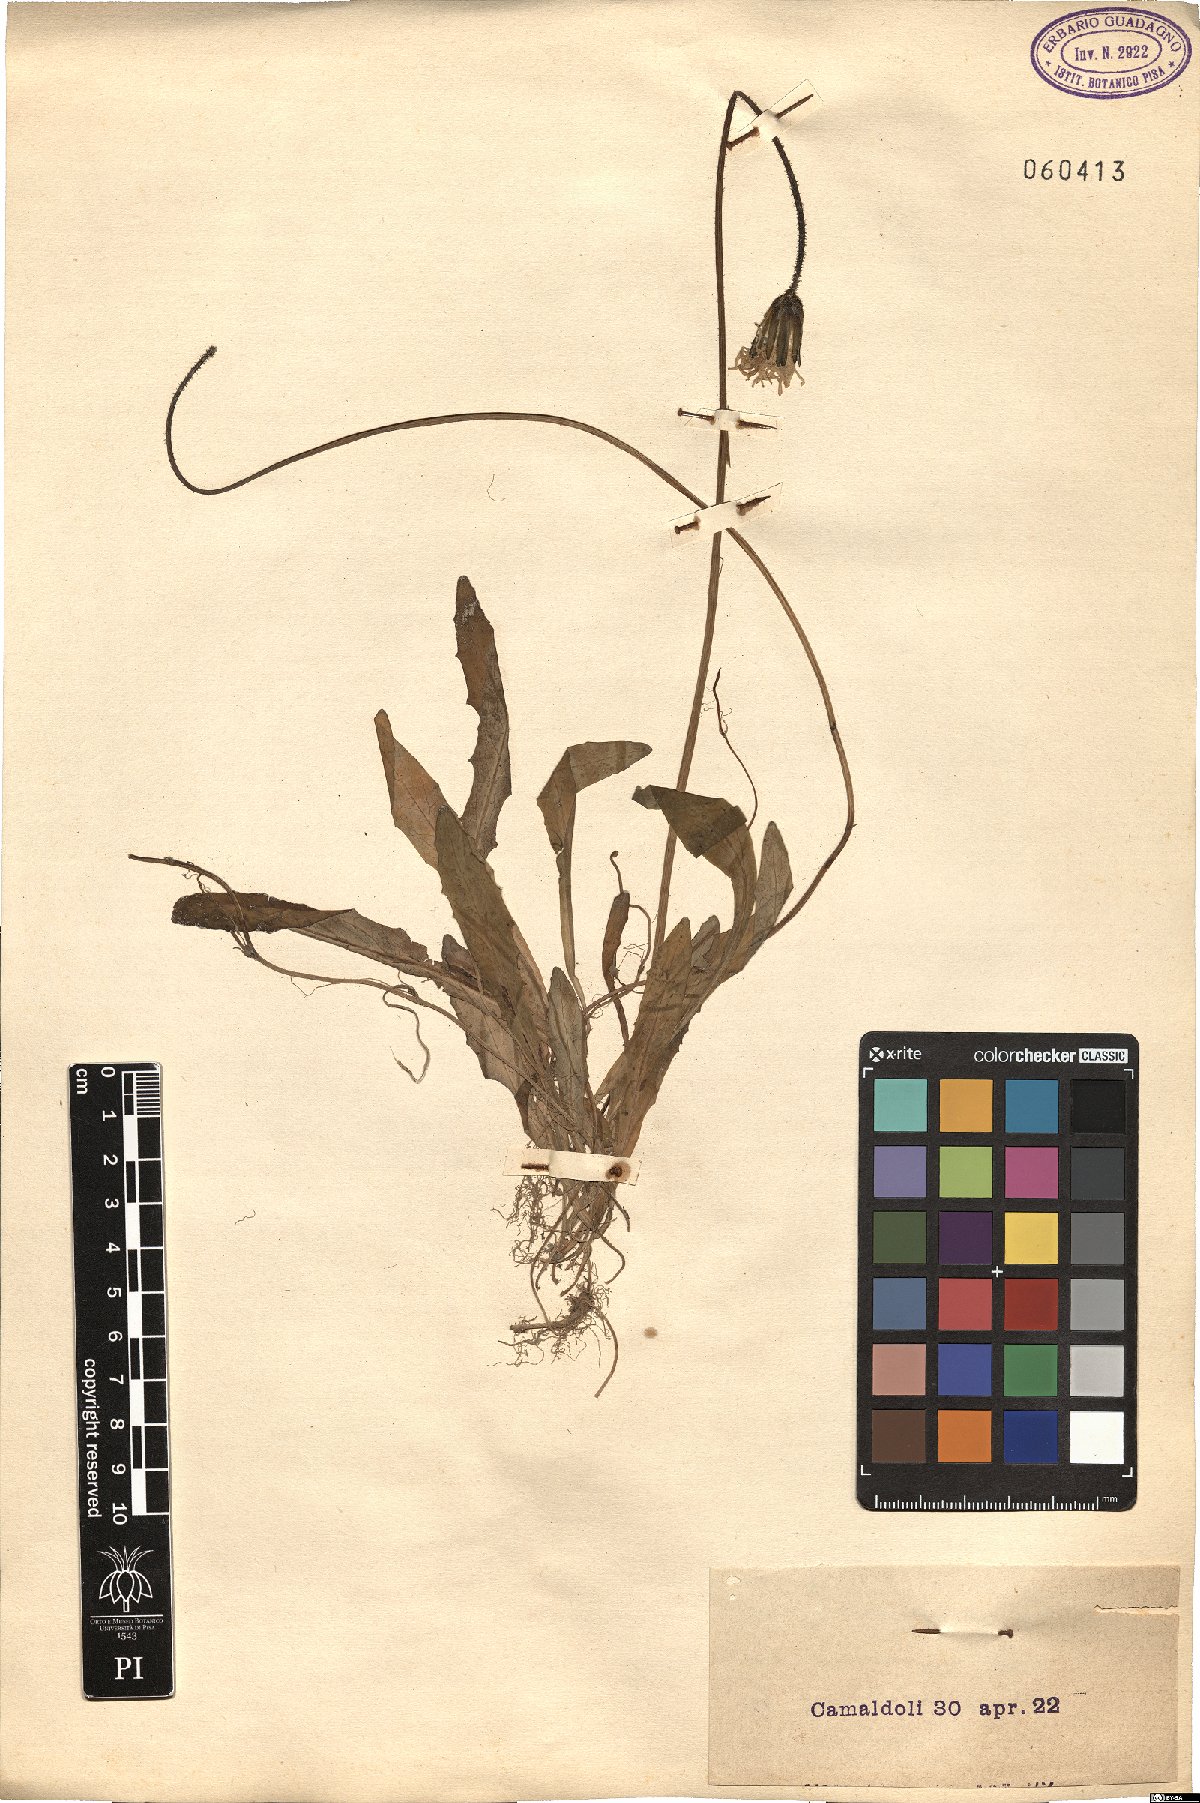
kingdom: Plantae
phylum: Tracheophyta
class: Magnoliopsida
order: Asterales
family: Asteraceae
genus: Aetheorhiza
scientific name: Aetheorhiza bulbosa
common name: Tuberous hawk's-beard
